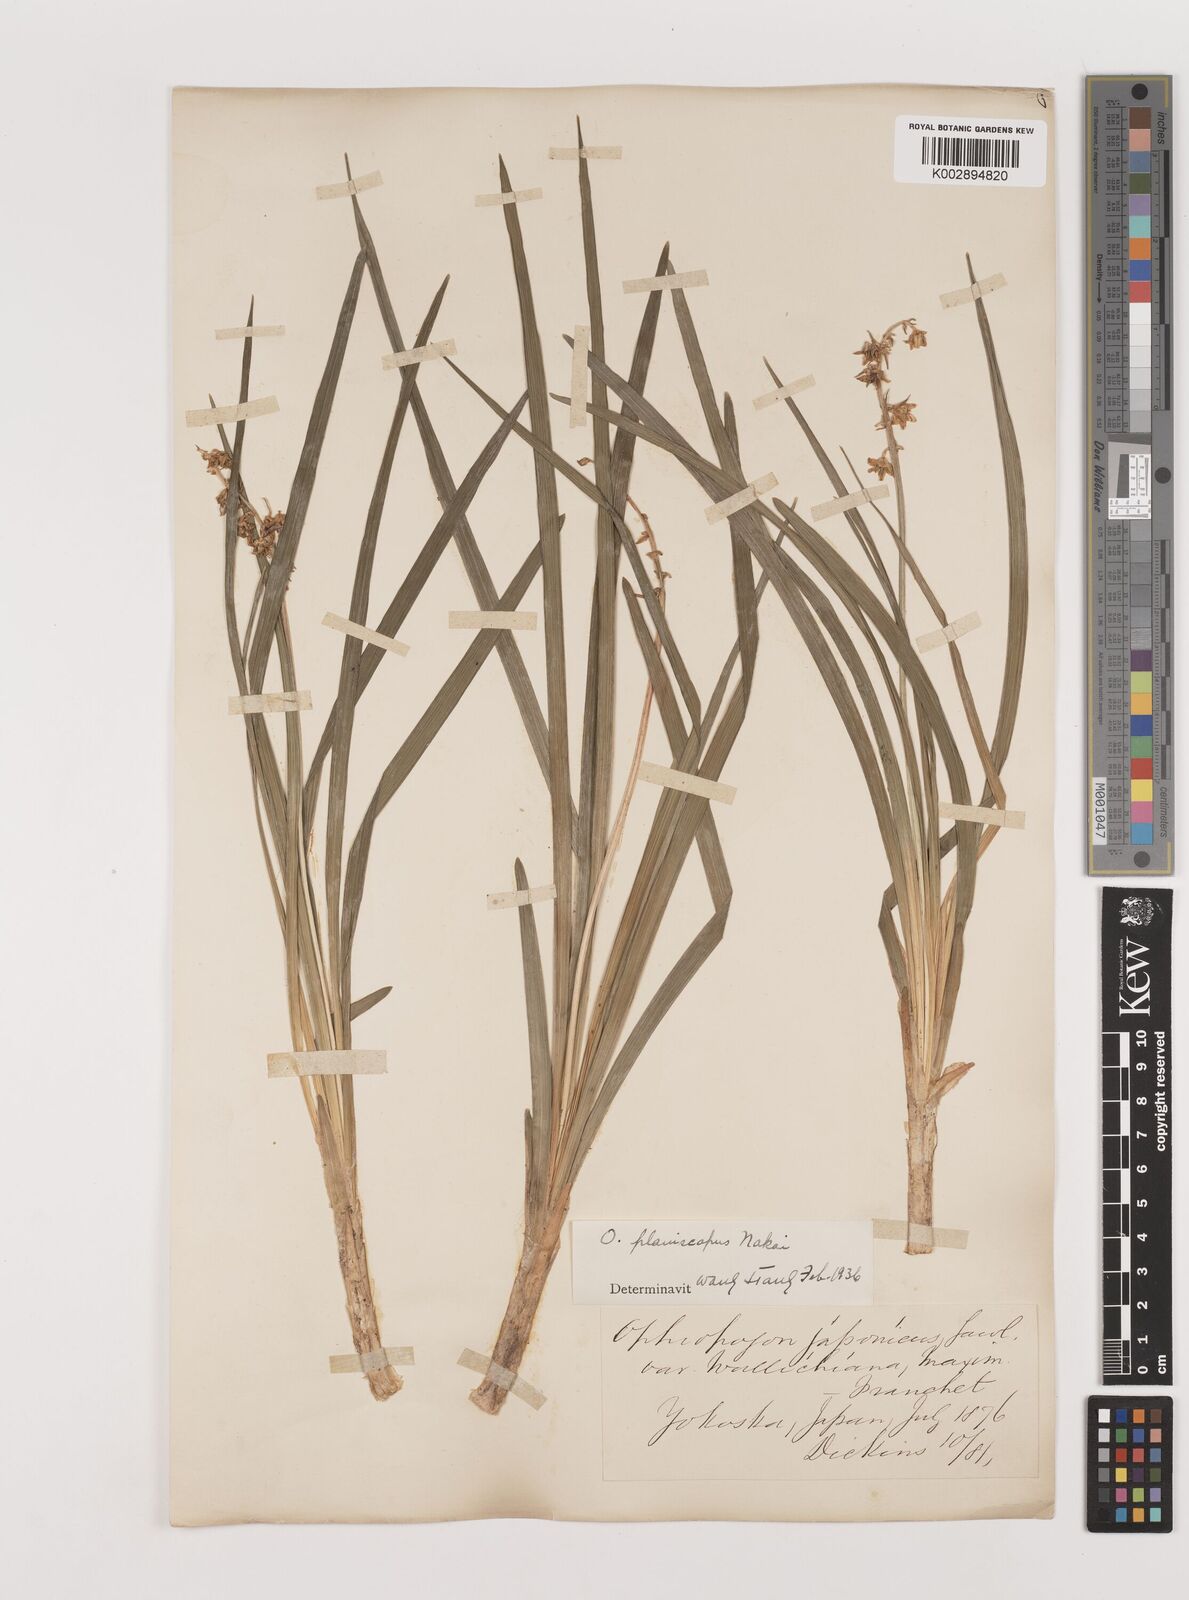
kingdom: Plantae
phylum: Tracheophyta
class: Liliopsida
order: Asparagales
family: Asparagaceae
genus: Ophiopogon
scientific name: Ophiopogon planiscapus
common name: Black mondo
